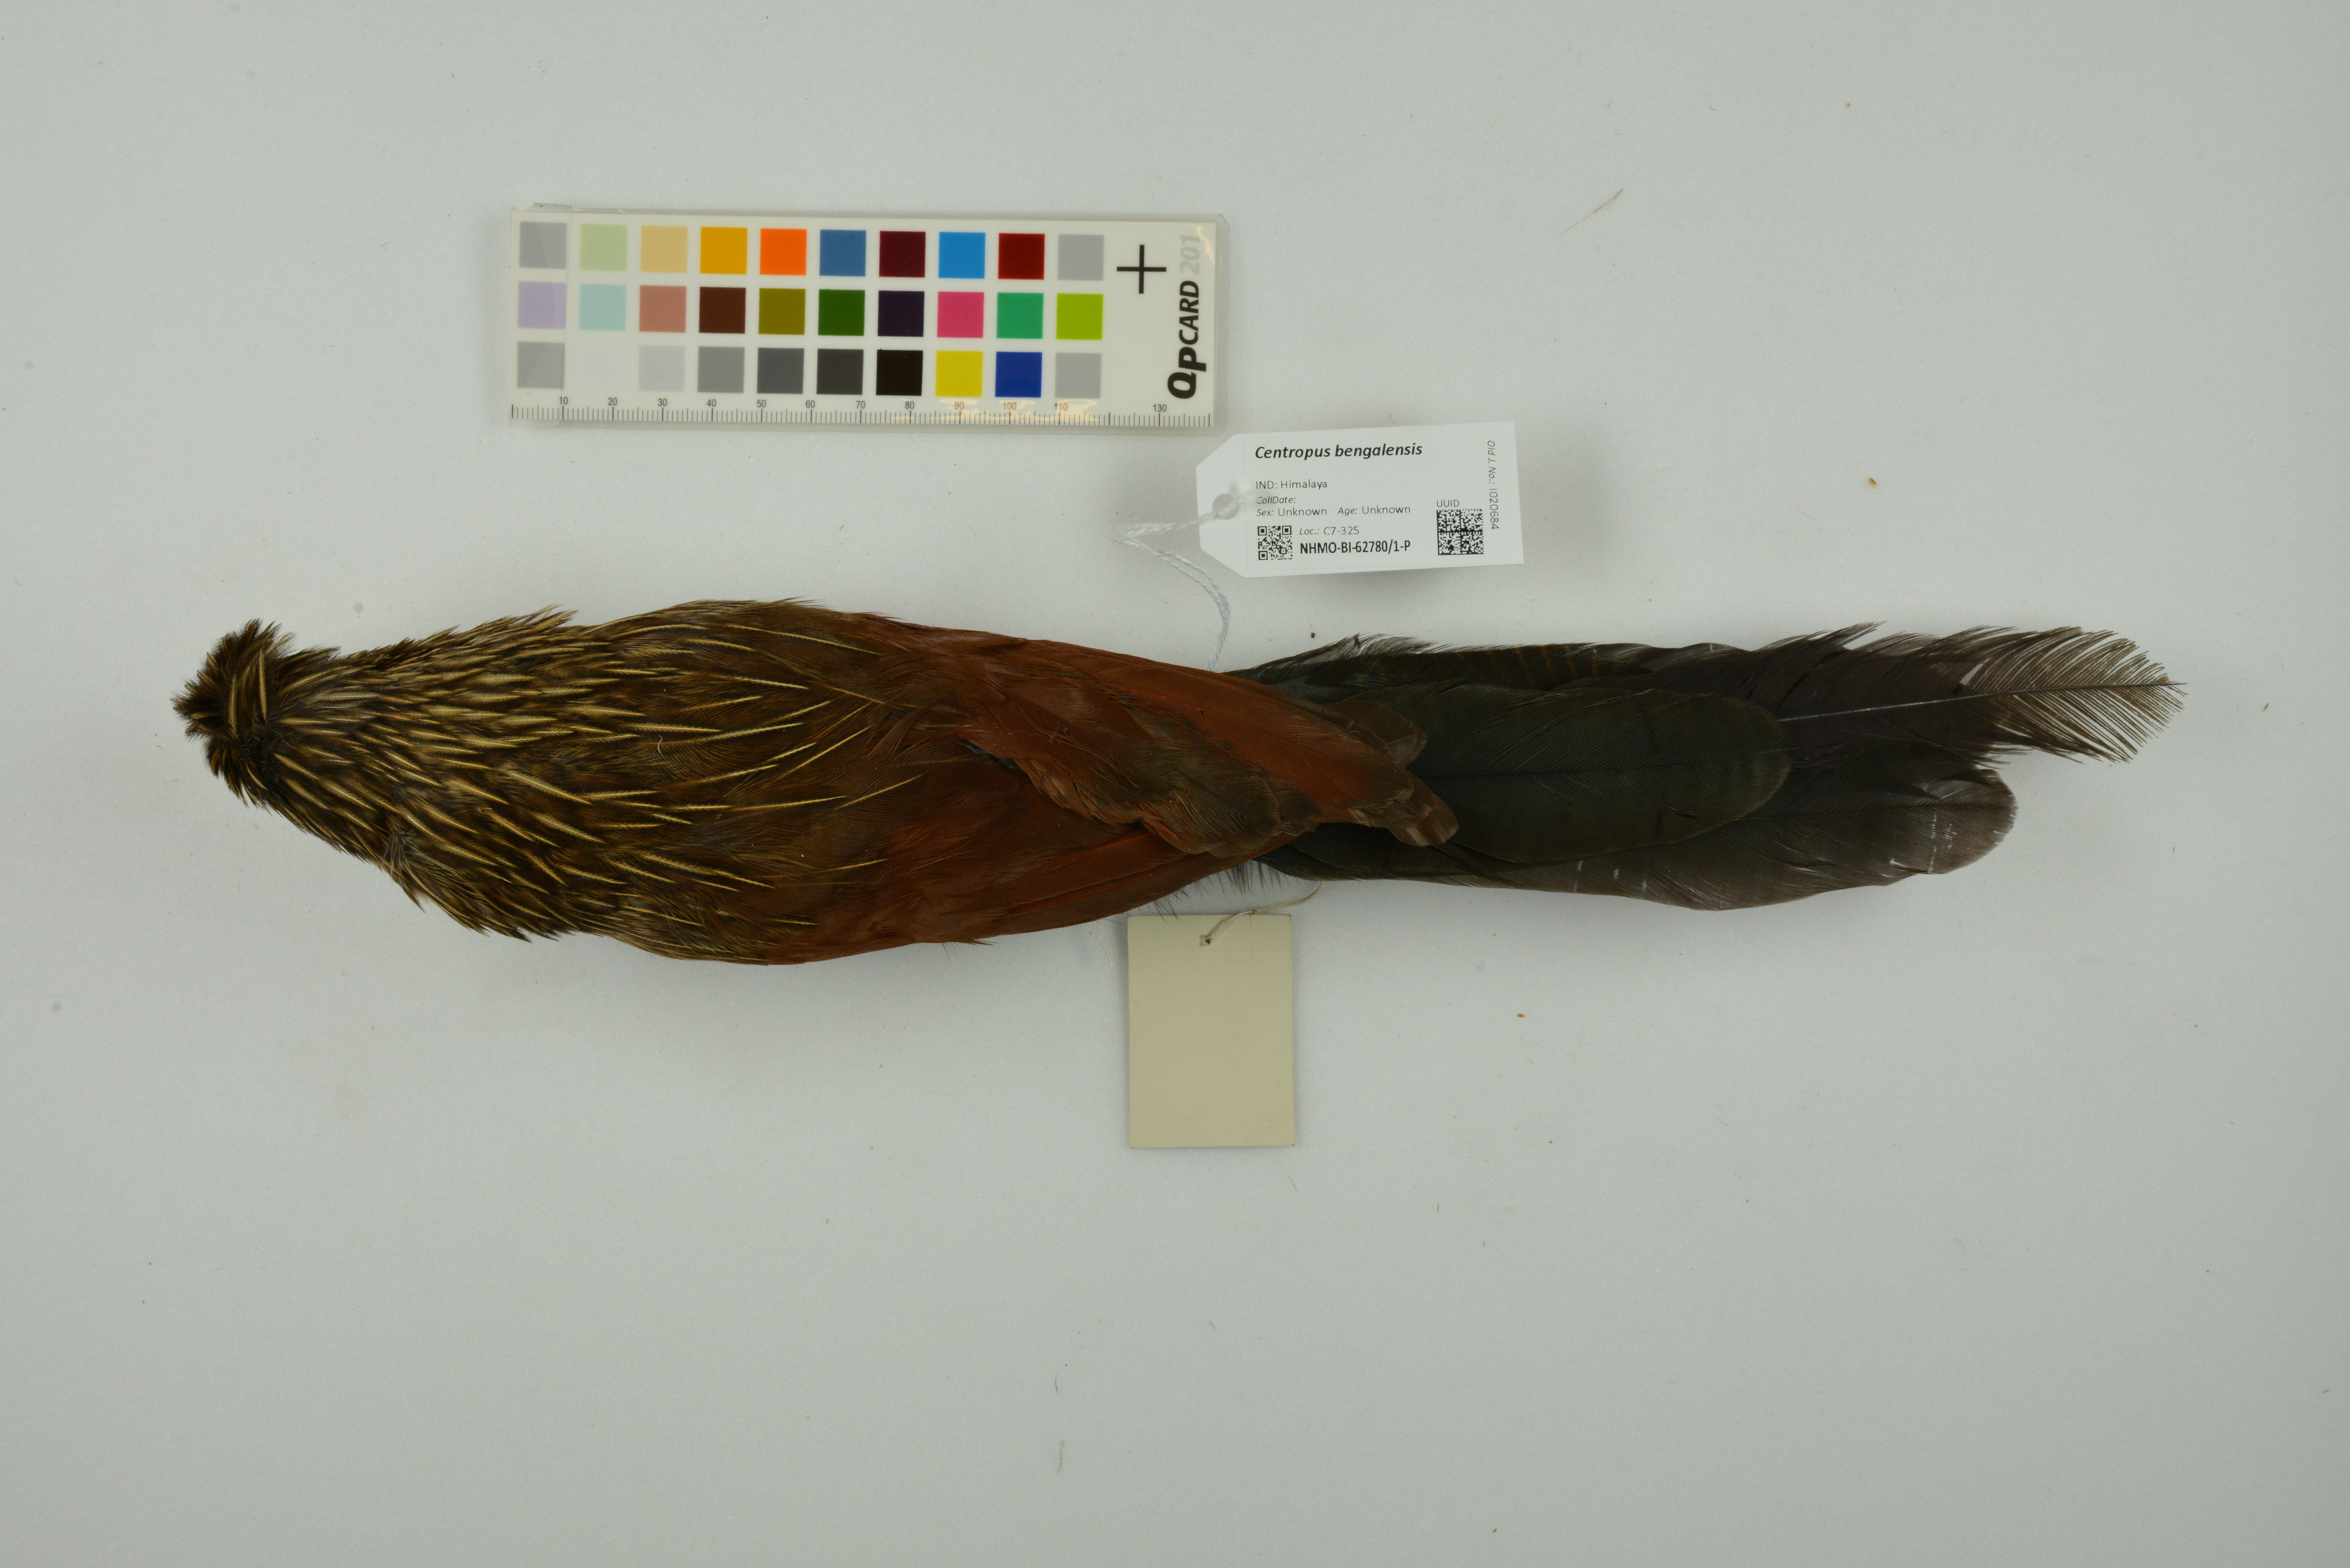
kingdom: Animalia
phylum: Chordata
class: Aves
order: Cuculiformes
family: Cuculidae
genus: Centropus
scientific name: Centropus bengalensis
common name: Lesser coucal
